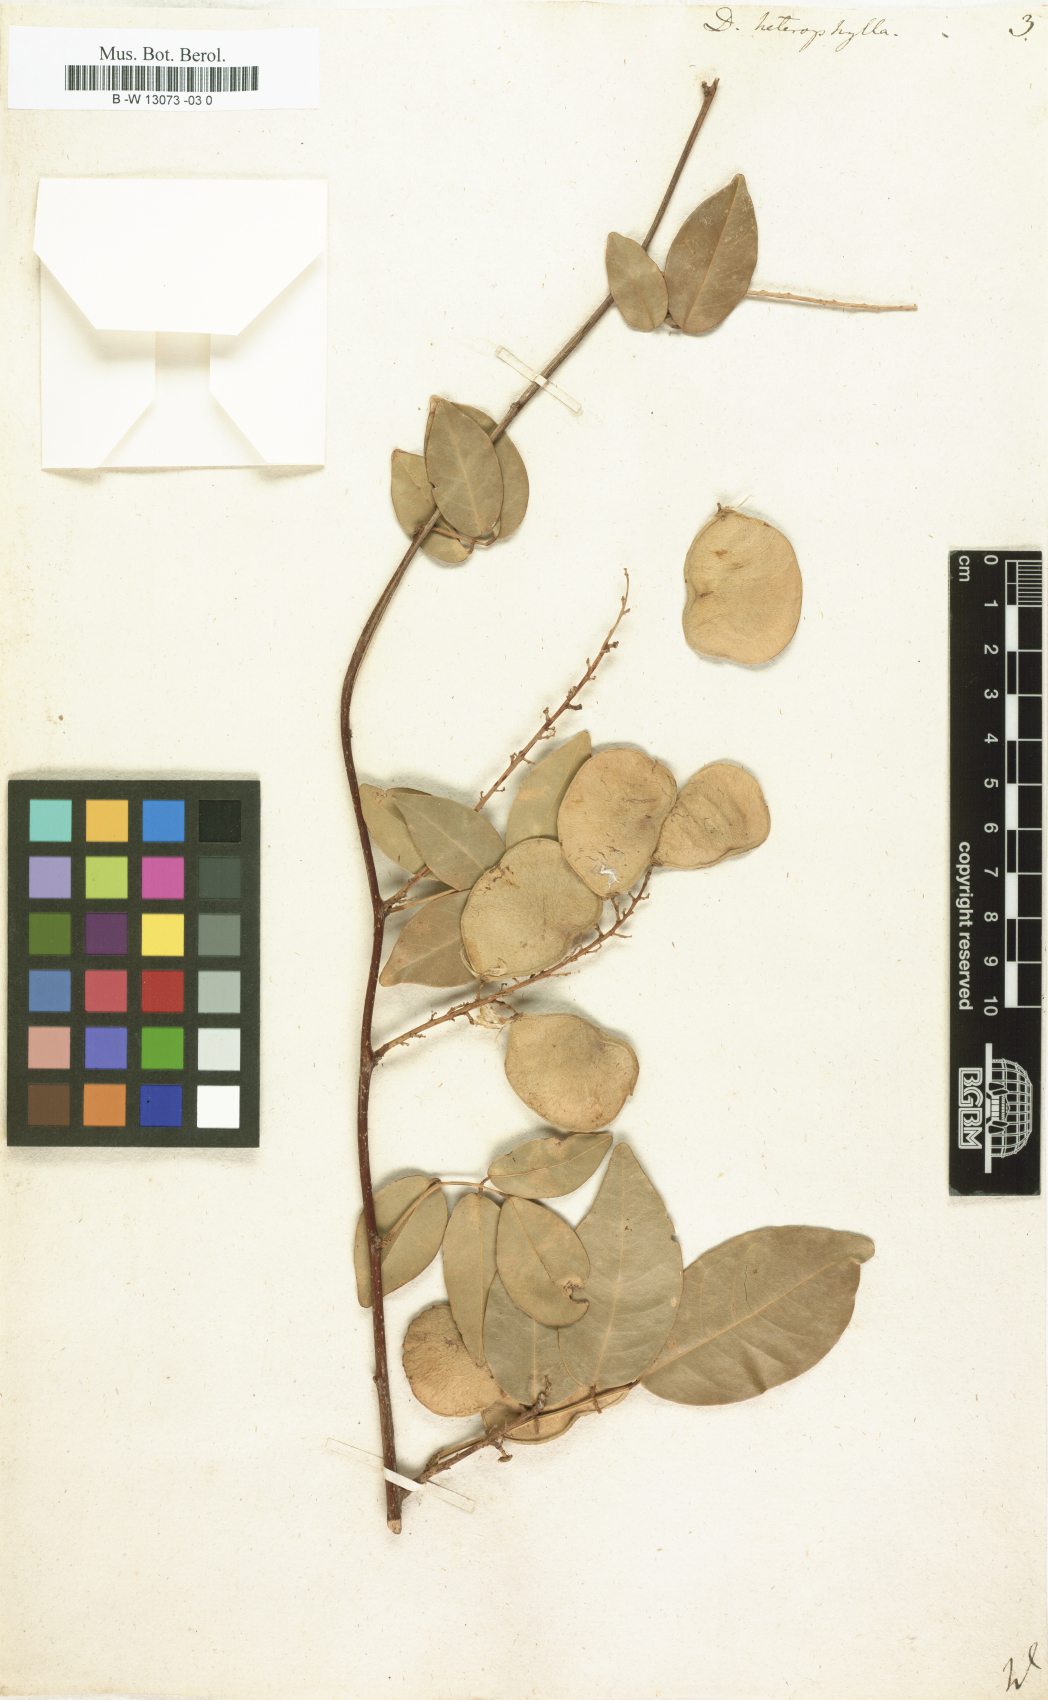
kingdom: Plantae
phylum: Tracheophyta
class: Magnoliopsida
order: Fabales
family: Fabaceae
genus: Derris
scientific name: Derris trifoliata
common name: Three-leaf derris
